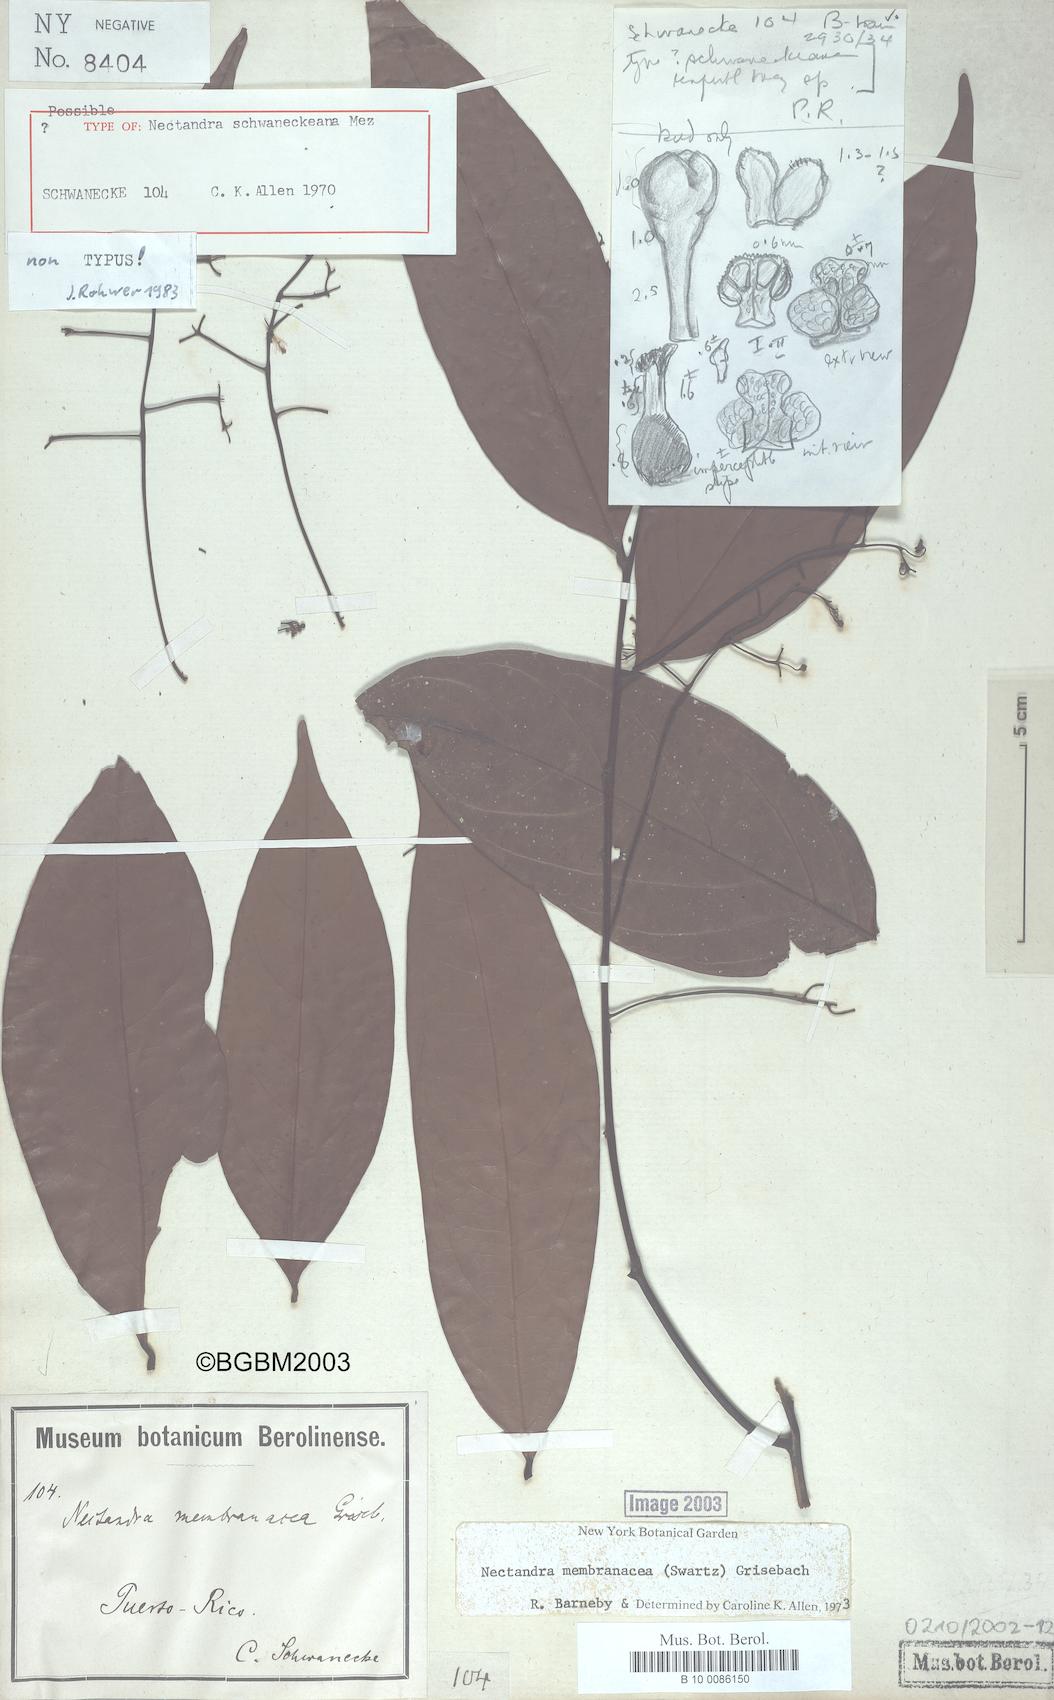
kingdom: Plantae
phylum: Tracheophyta
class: Magnoliopsida
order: Laurales
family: Lauraceae
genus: Nectandra
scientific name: Nectandra membranacea
